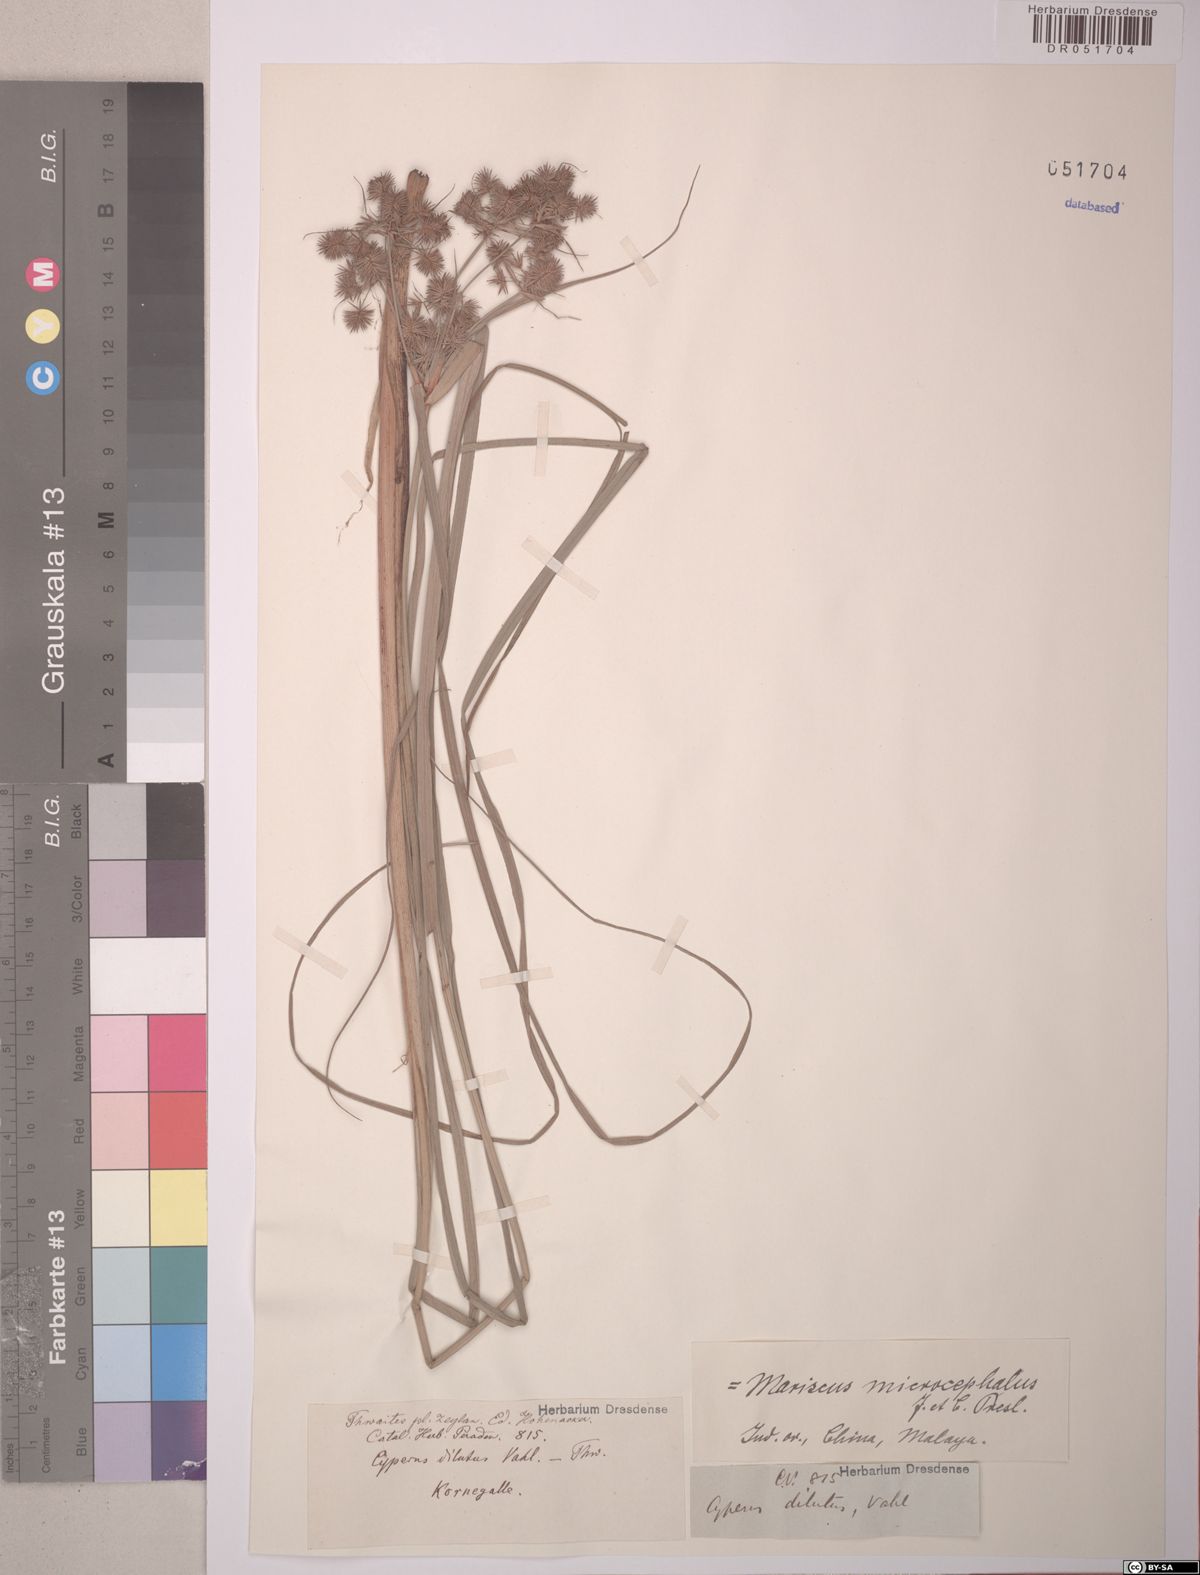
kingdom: Plantae
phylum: Tracheophyta
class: Liliopsida
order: Poales
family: Cyperaceae
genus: Cyperus
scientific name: Cyperus compactus
